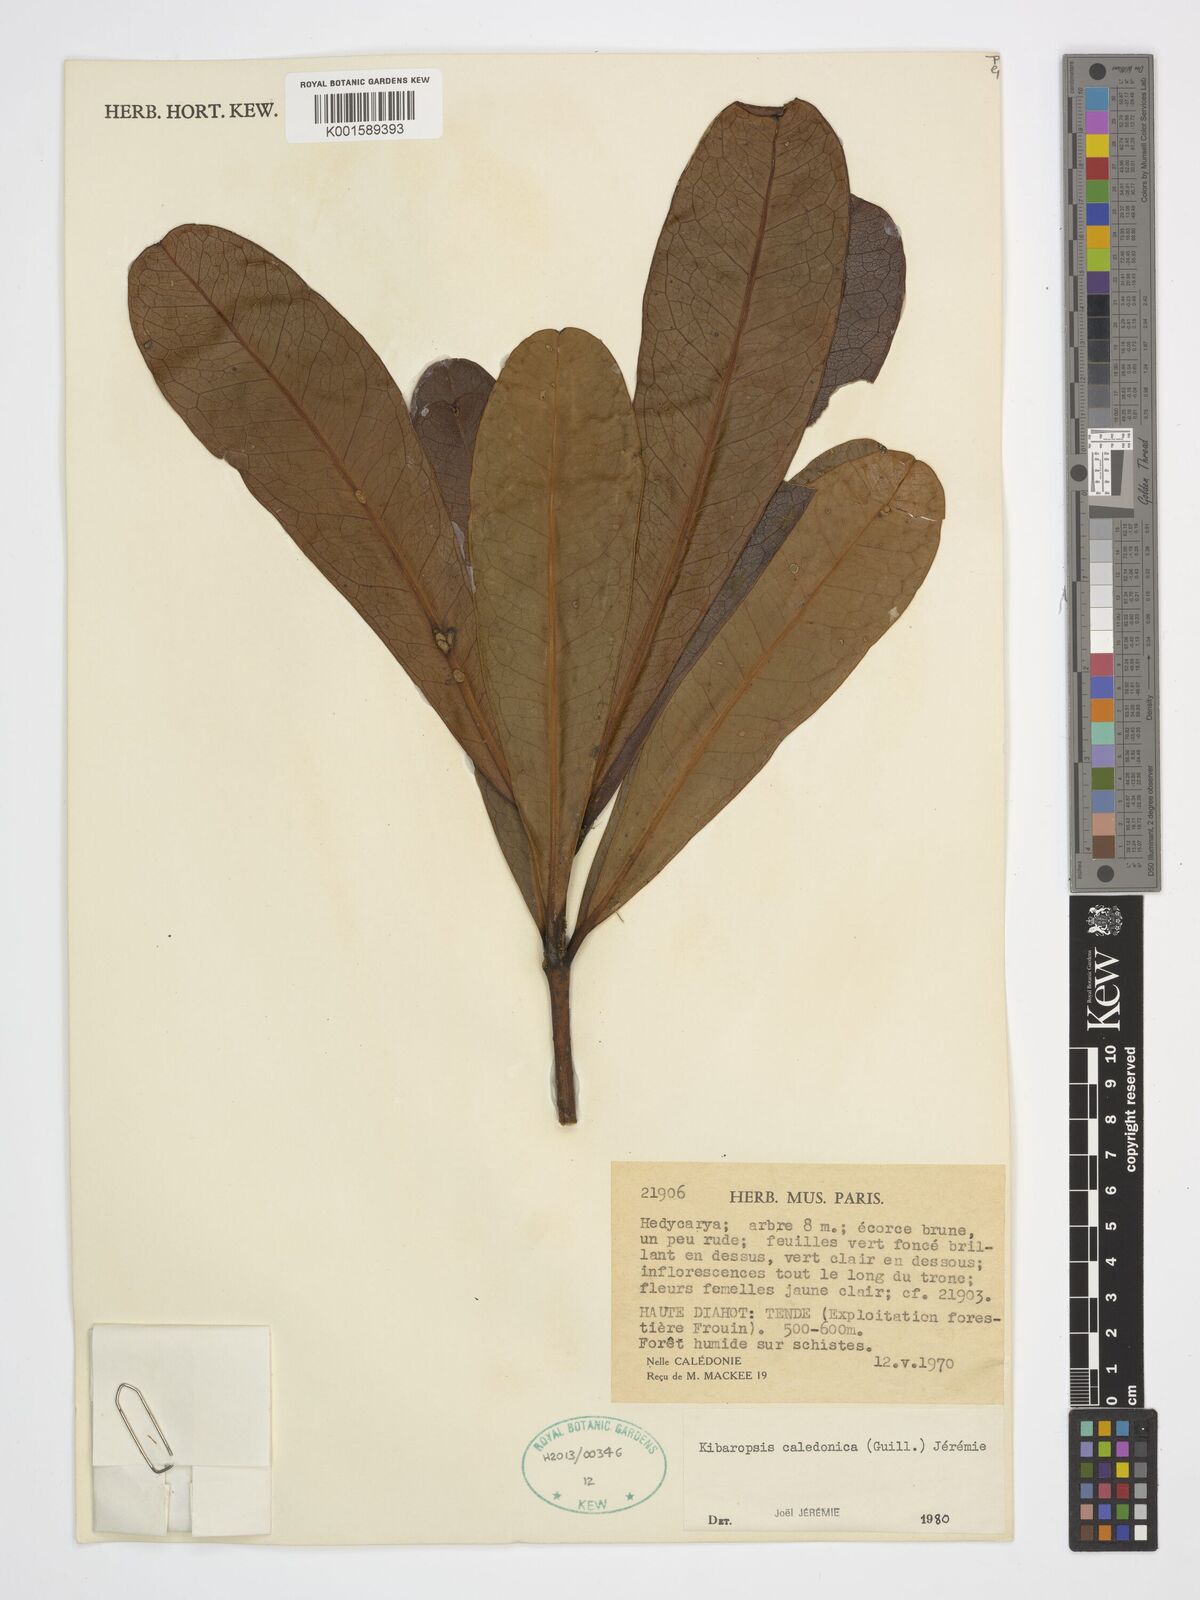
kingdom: Plantae
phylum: Tracheophyta
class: Magnoliopsida
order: Laurales
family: Monimiaceae
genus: Kibaropsis
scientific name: Kibaropsis caledonica
